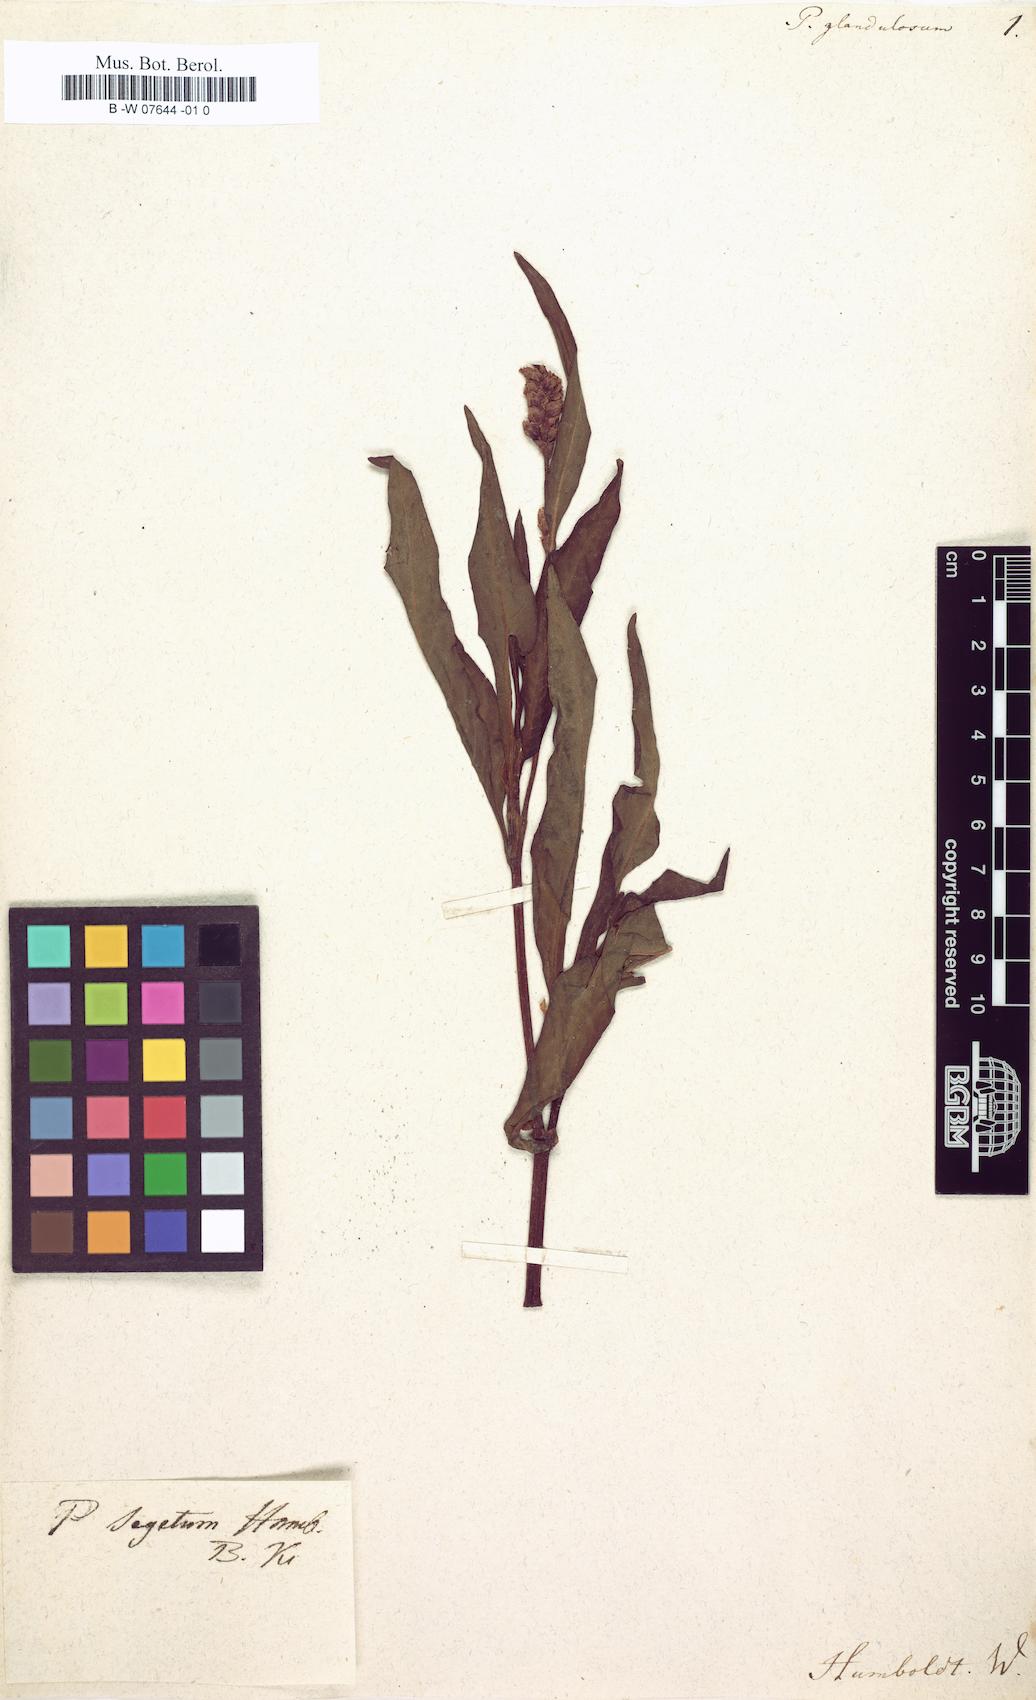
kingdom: Plantae
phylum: Tracheophyta
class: Magnoliopsida
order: Caryophyllales
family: Polygonaceae
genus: Persicaria
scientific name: Persicaria
